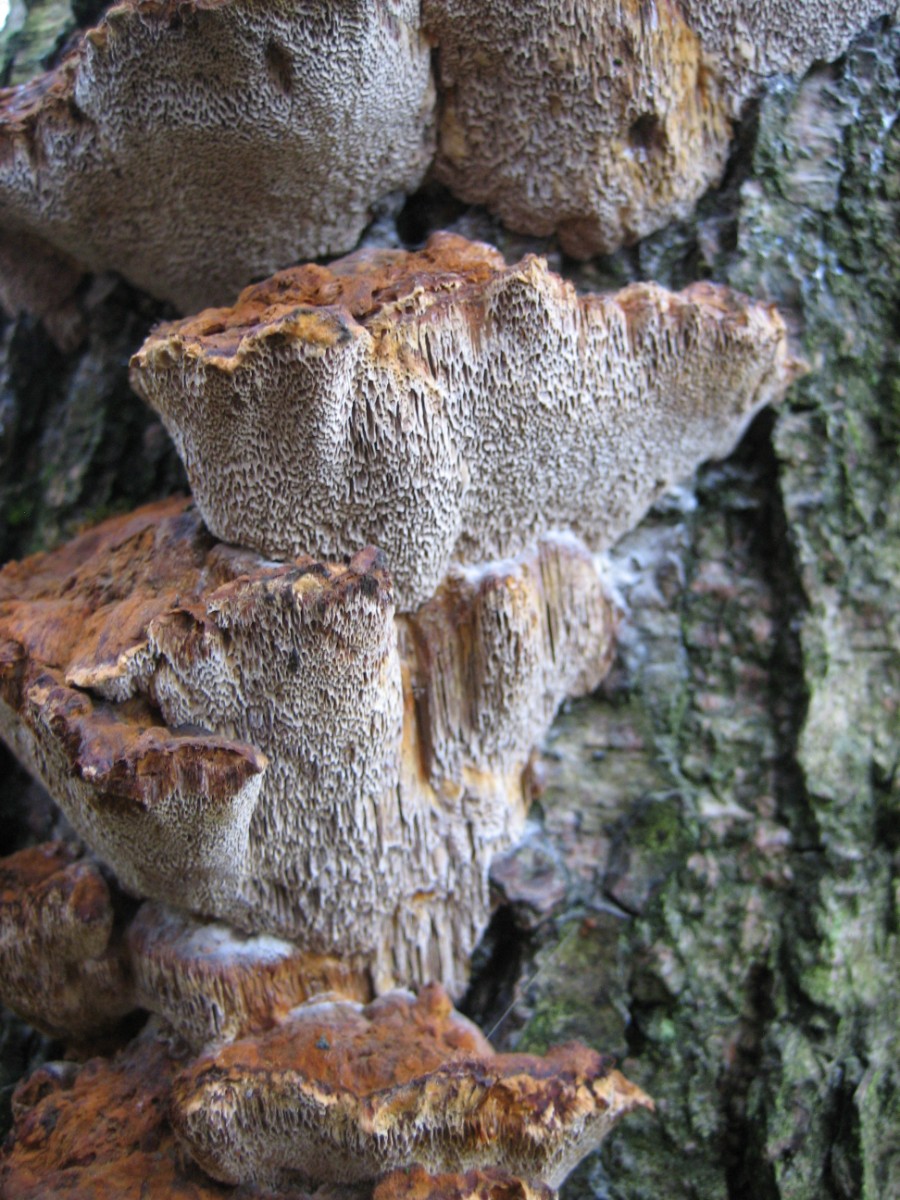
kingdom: Fungi
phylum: Basidiomycota
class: Agaricomycetes
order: Hymenochaetales
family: Hymenochaetaceae
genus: Xanthoporia
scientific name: Xanthoporia radiata
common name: elle-spejlporesvamp
